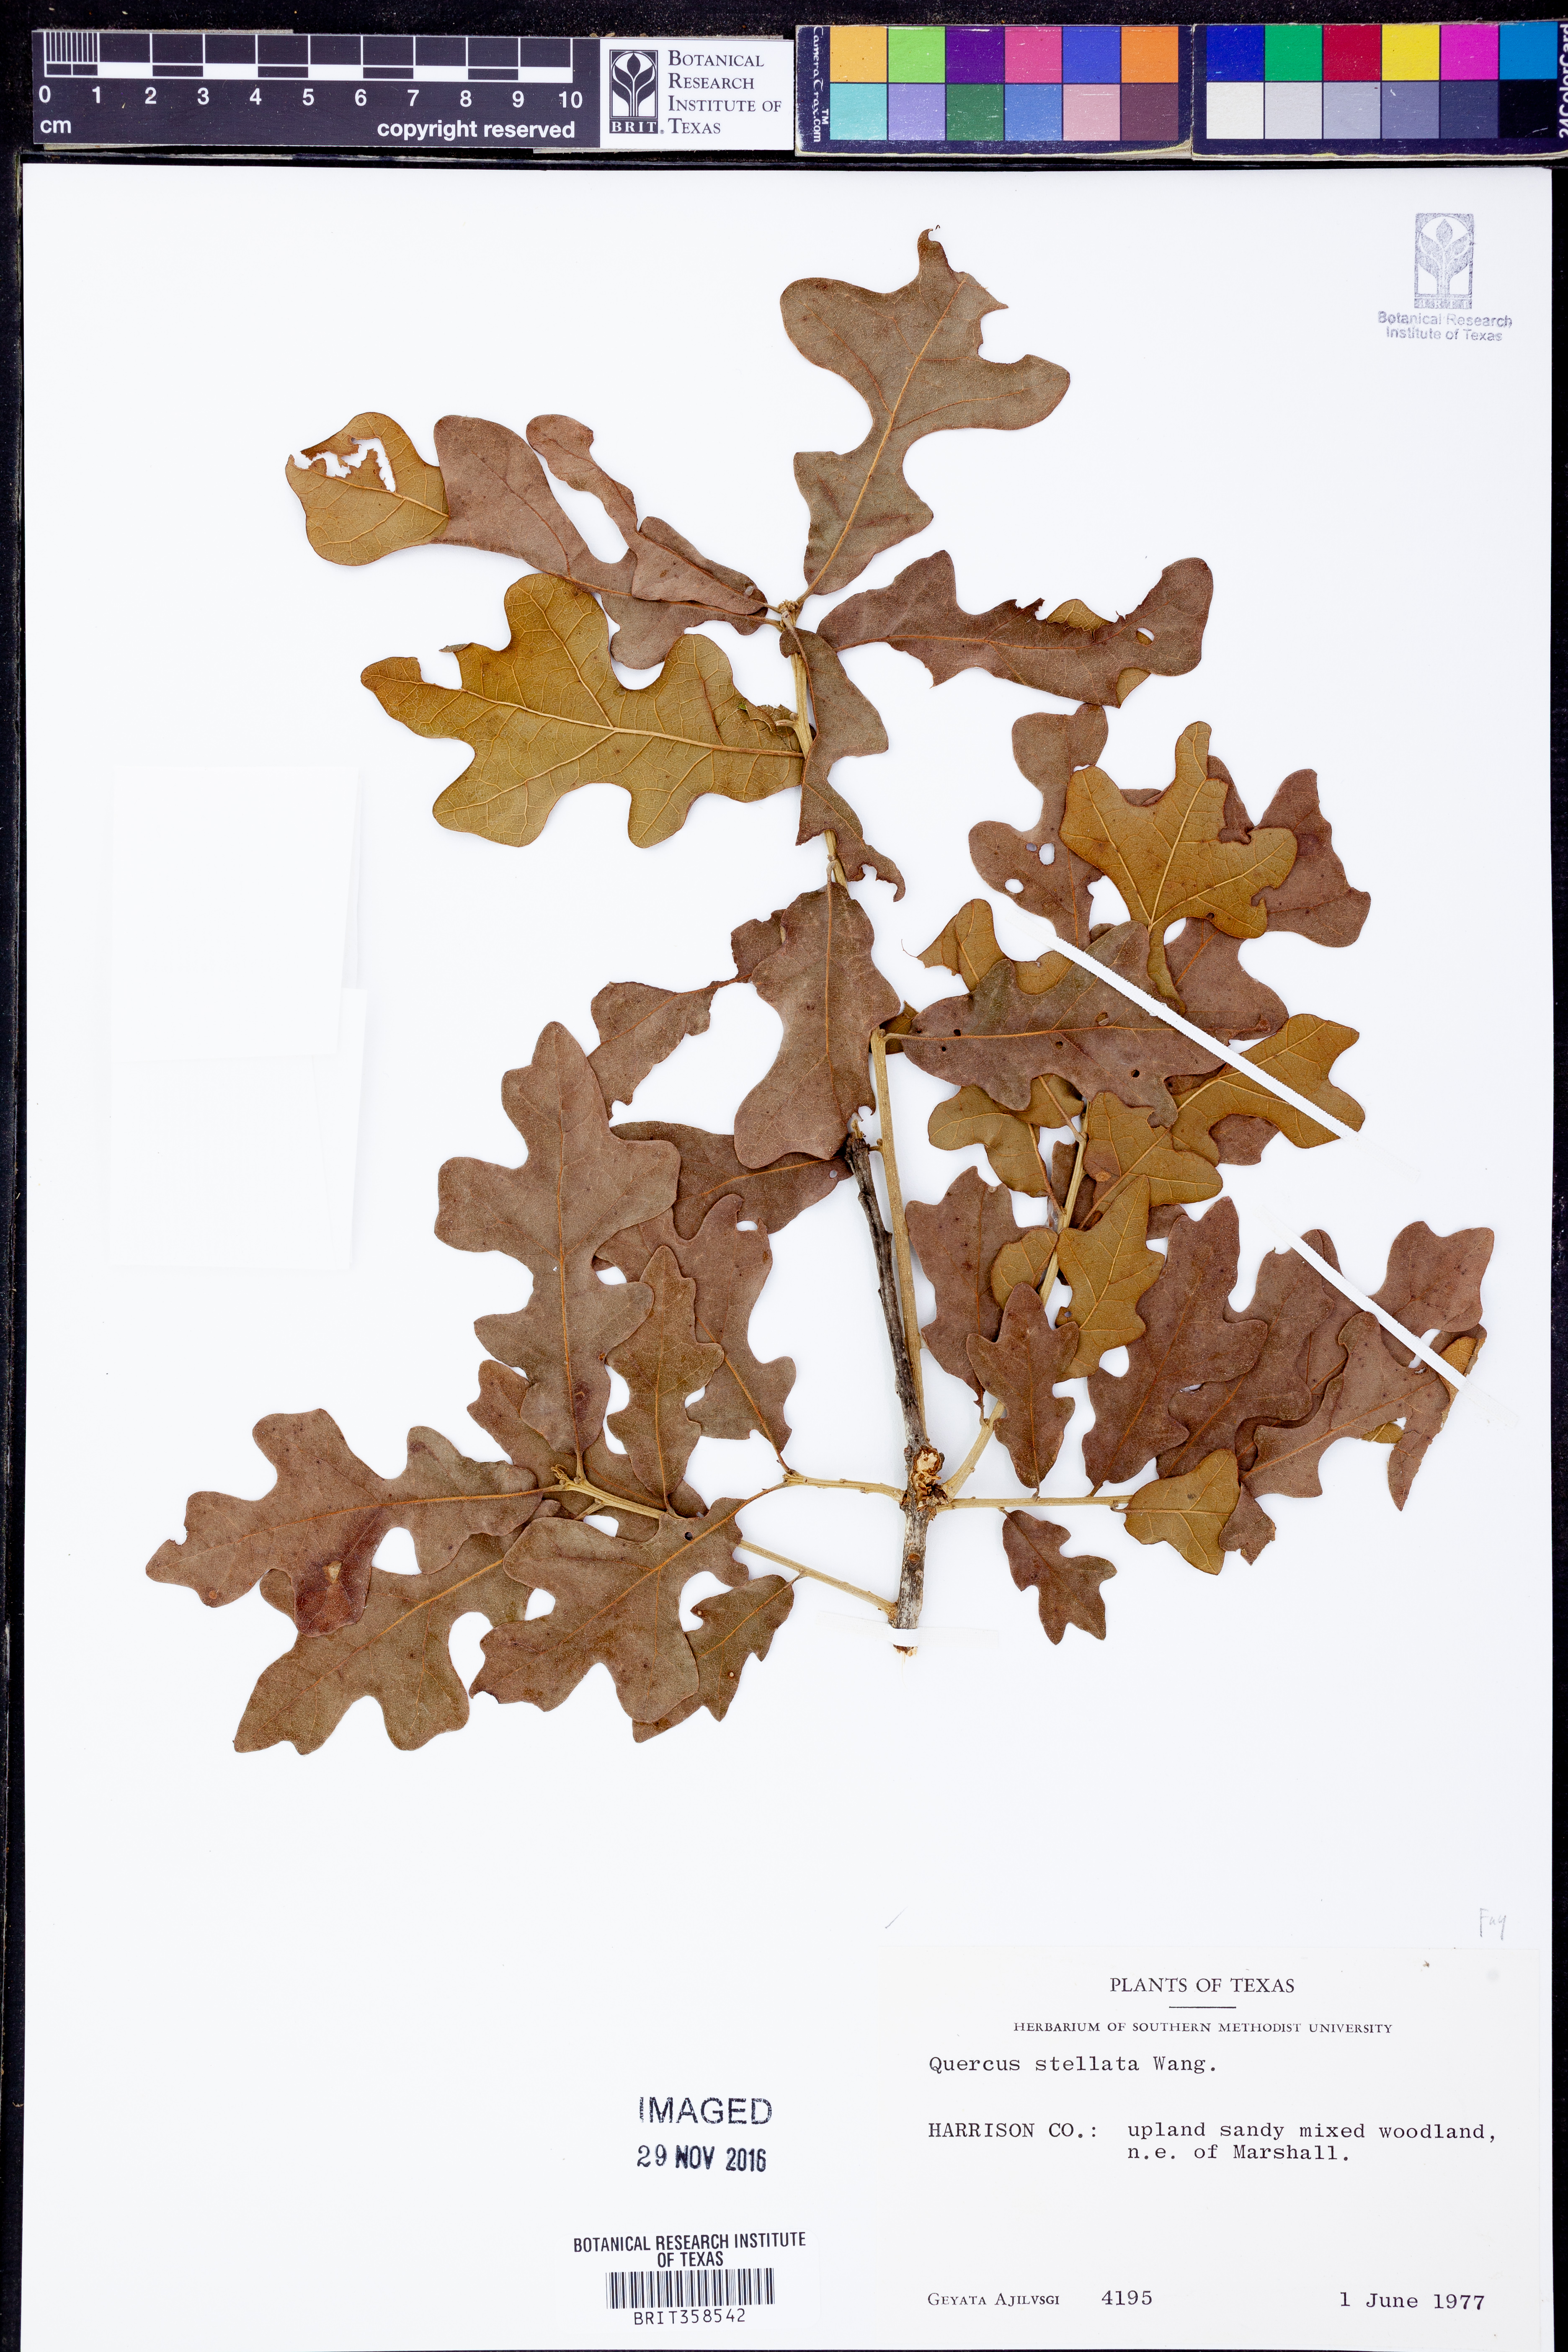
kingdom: Plantae
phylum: Tracheophyta
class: Magnoliopsida
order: Fagales
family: Fagaceae
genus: Quercus
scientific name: Quercus stellata
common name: Post oak
